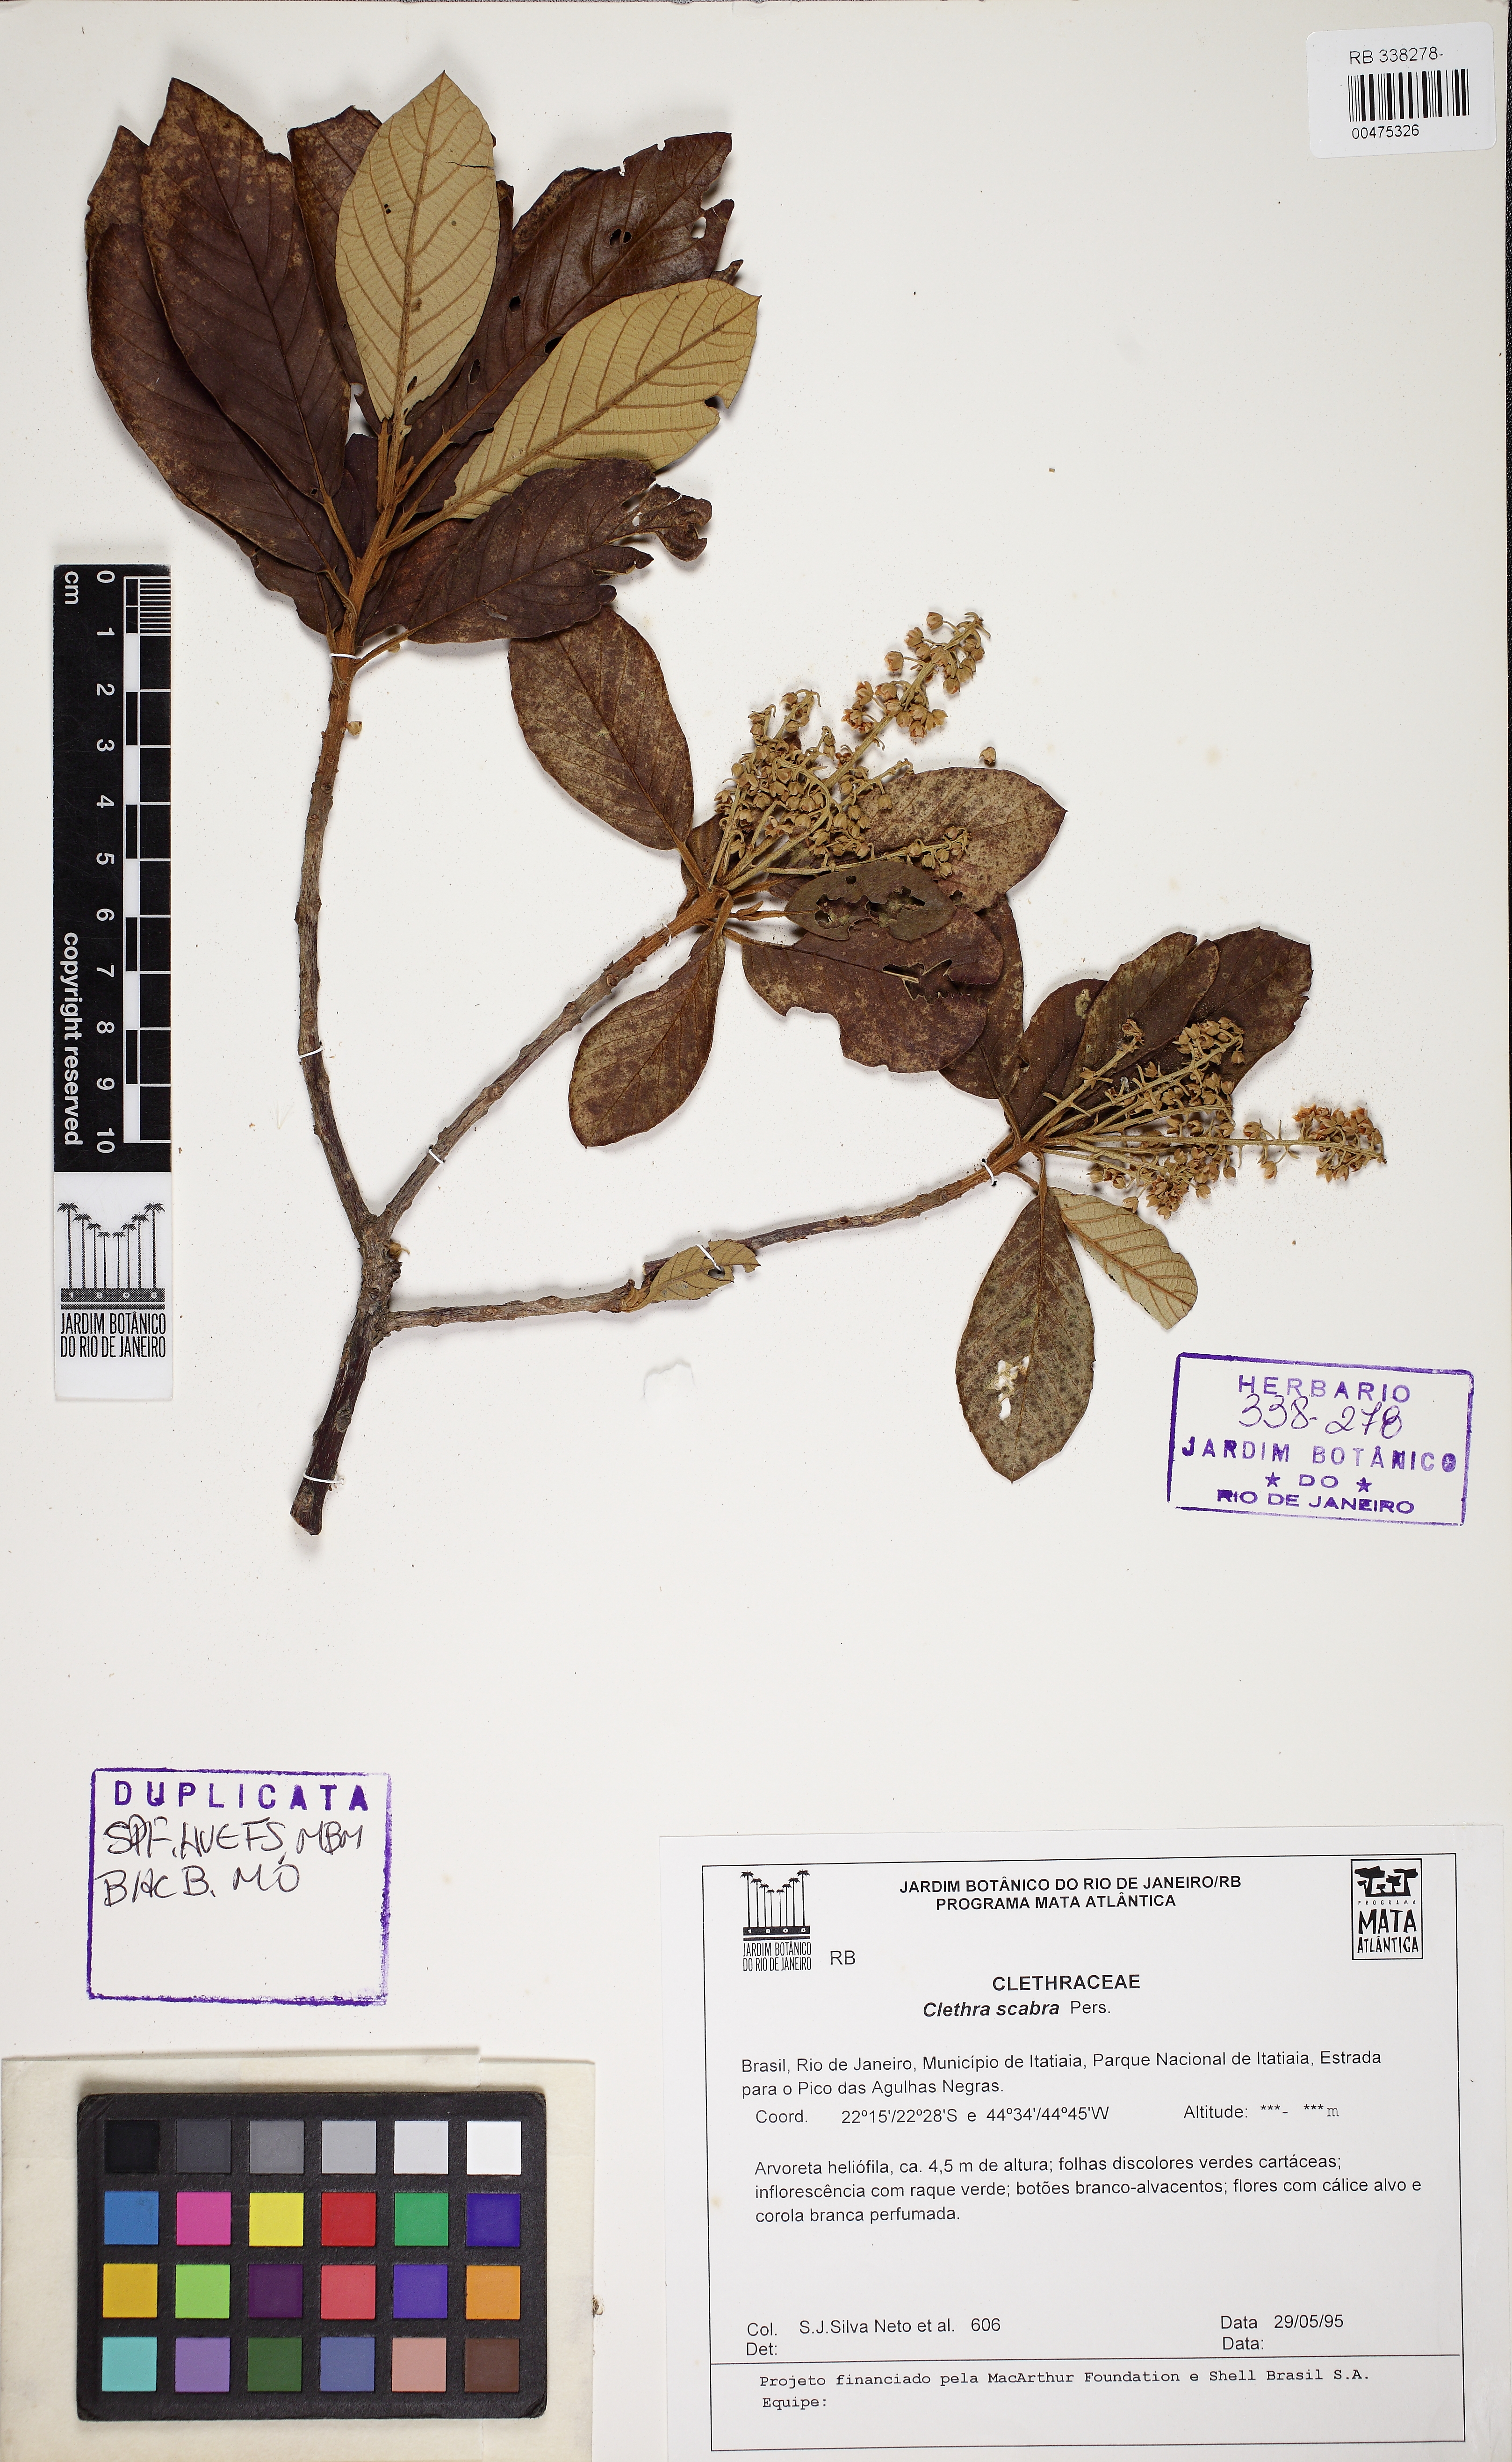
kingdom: Plantae
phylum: Tracheophyta
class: Magnoliopsida
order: Ericales
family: Clethraceae
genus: Clethra
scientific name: Clethra scabra
